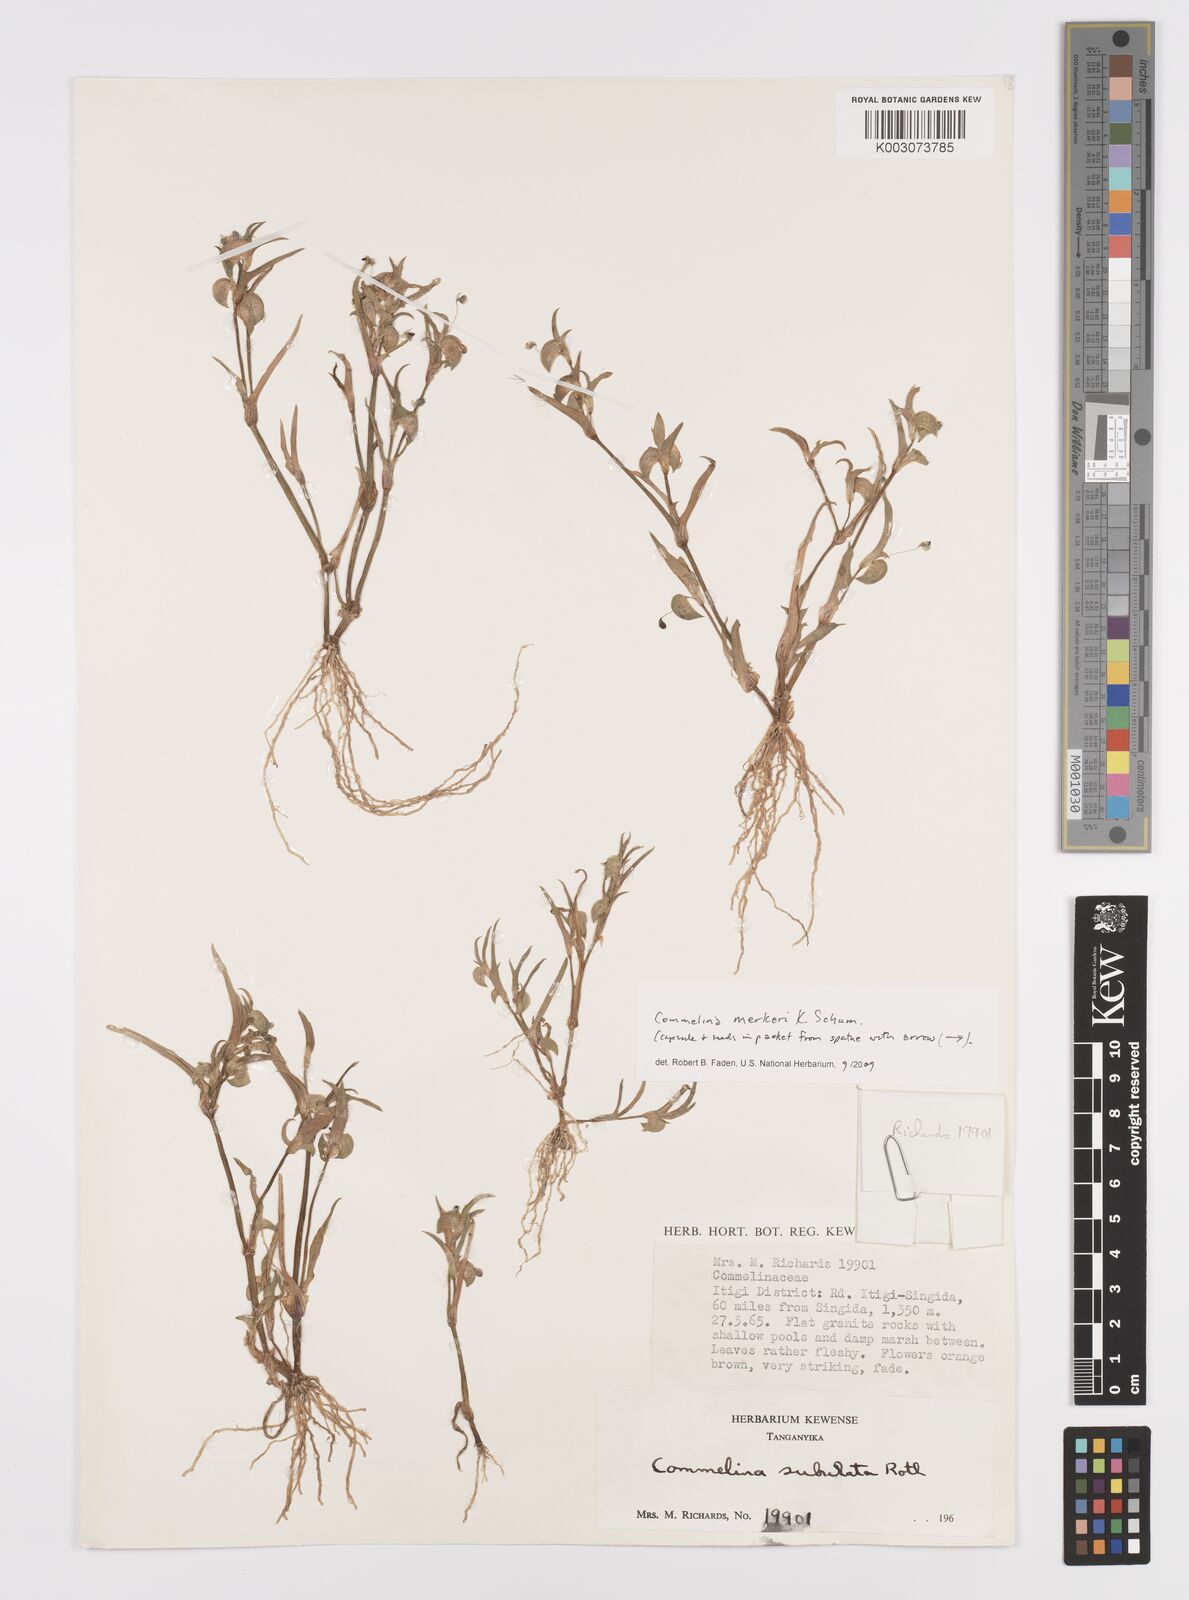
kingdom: Plantae
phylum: Tracheophyta
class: Liliopsida
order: Commelinales
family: Commelinaceae
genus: Commelina
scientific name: Commelina merkeri
